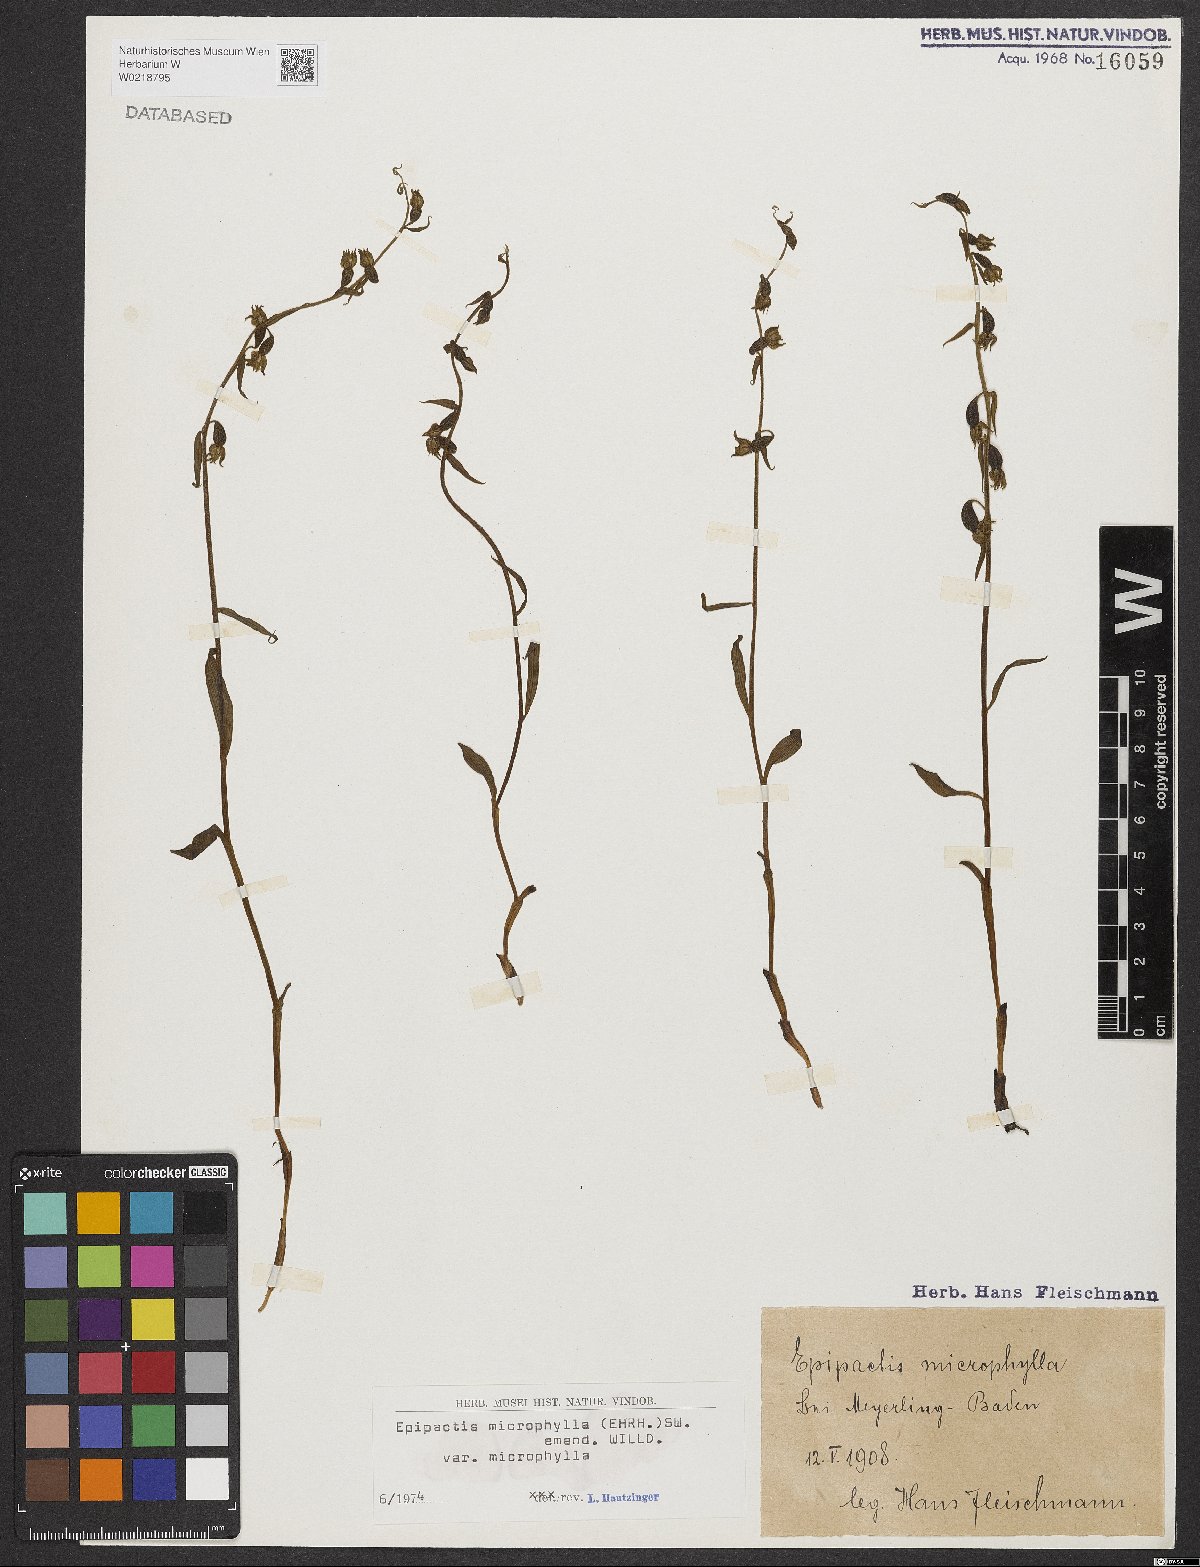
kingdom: Plantae
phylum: Tracheophyta
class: Liliopsida
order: Asparagales
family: Orchidaceae
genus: Epipactis
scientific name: Epipactis microphylla
